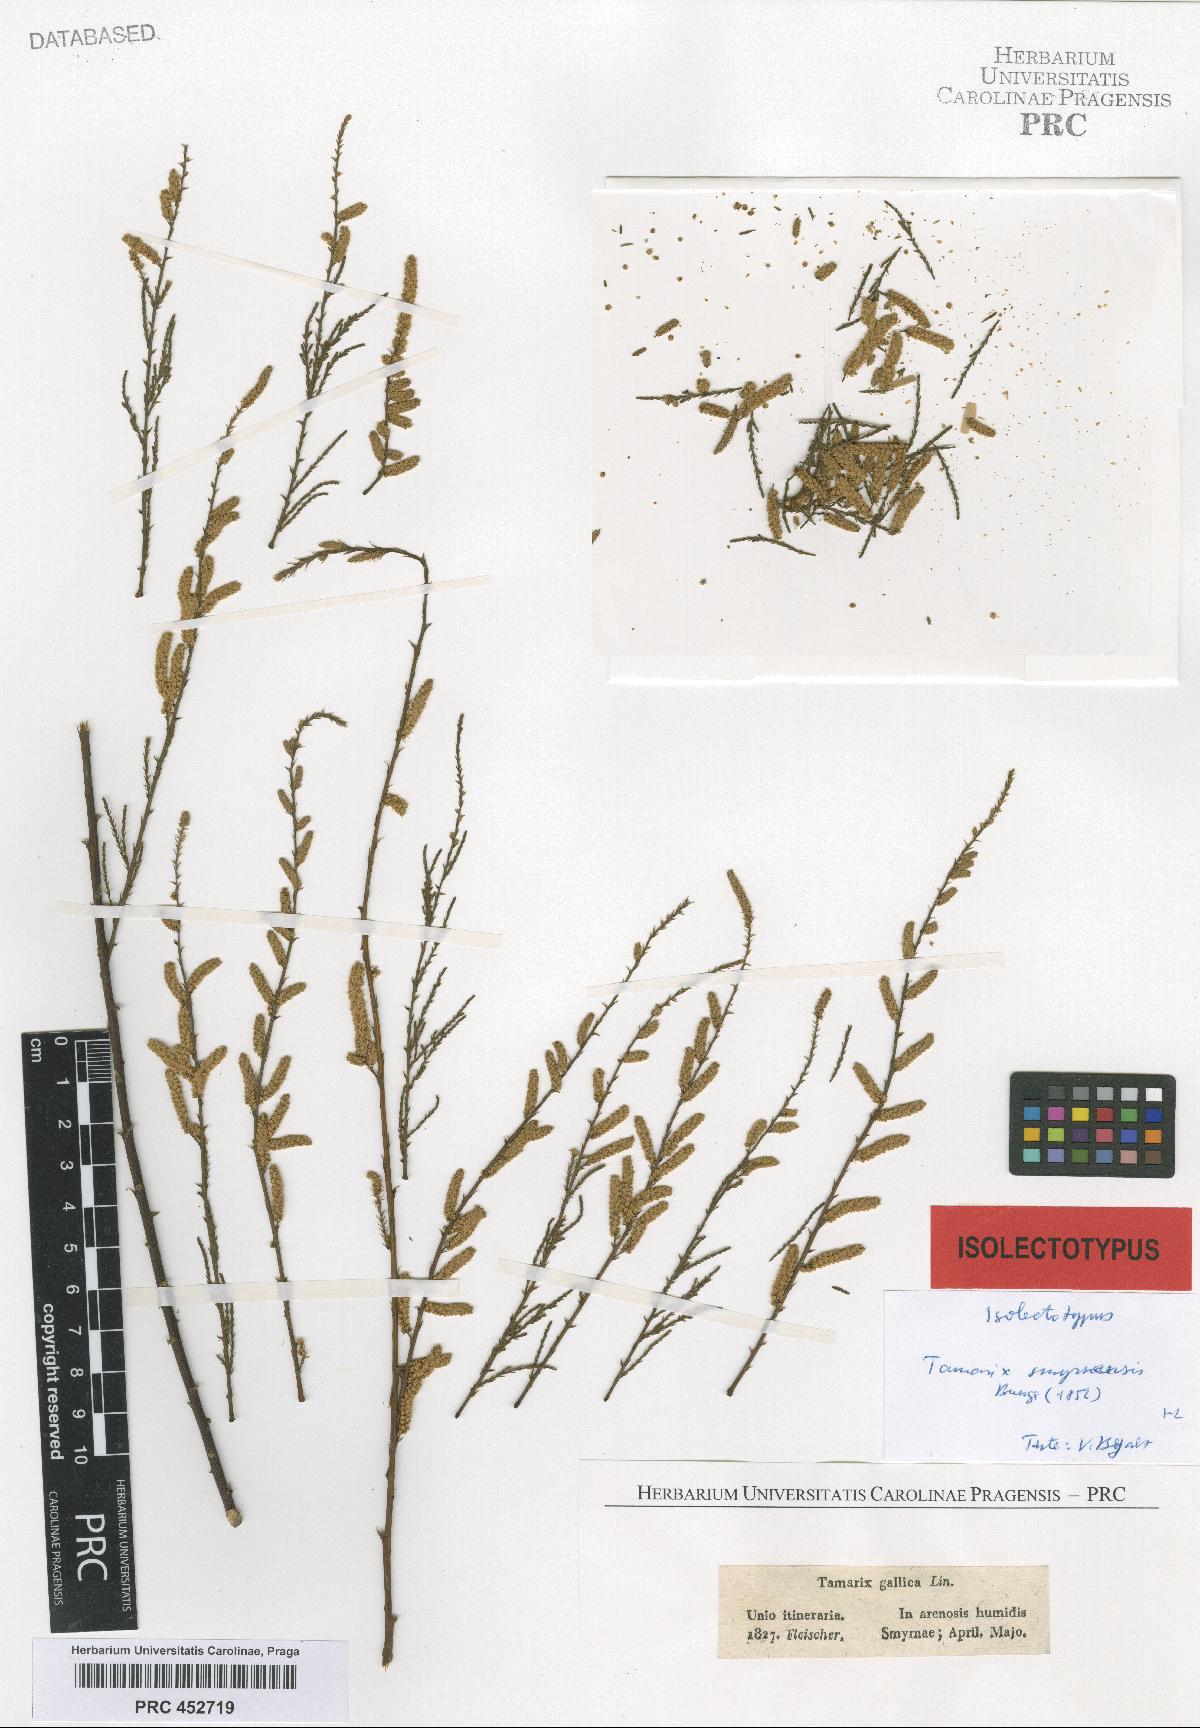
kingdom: Plantae
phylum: Tracheophyta
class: Magnoliopsida
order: Caryophyllales
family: Tamaricaceae
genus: Tamarix
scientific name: Tamarix smyrnensis
